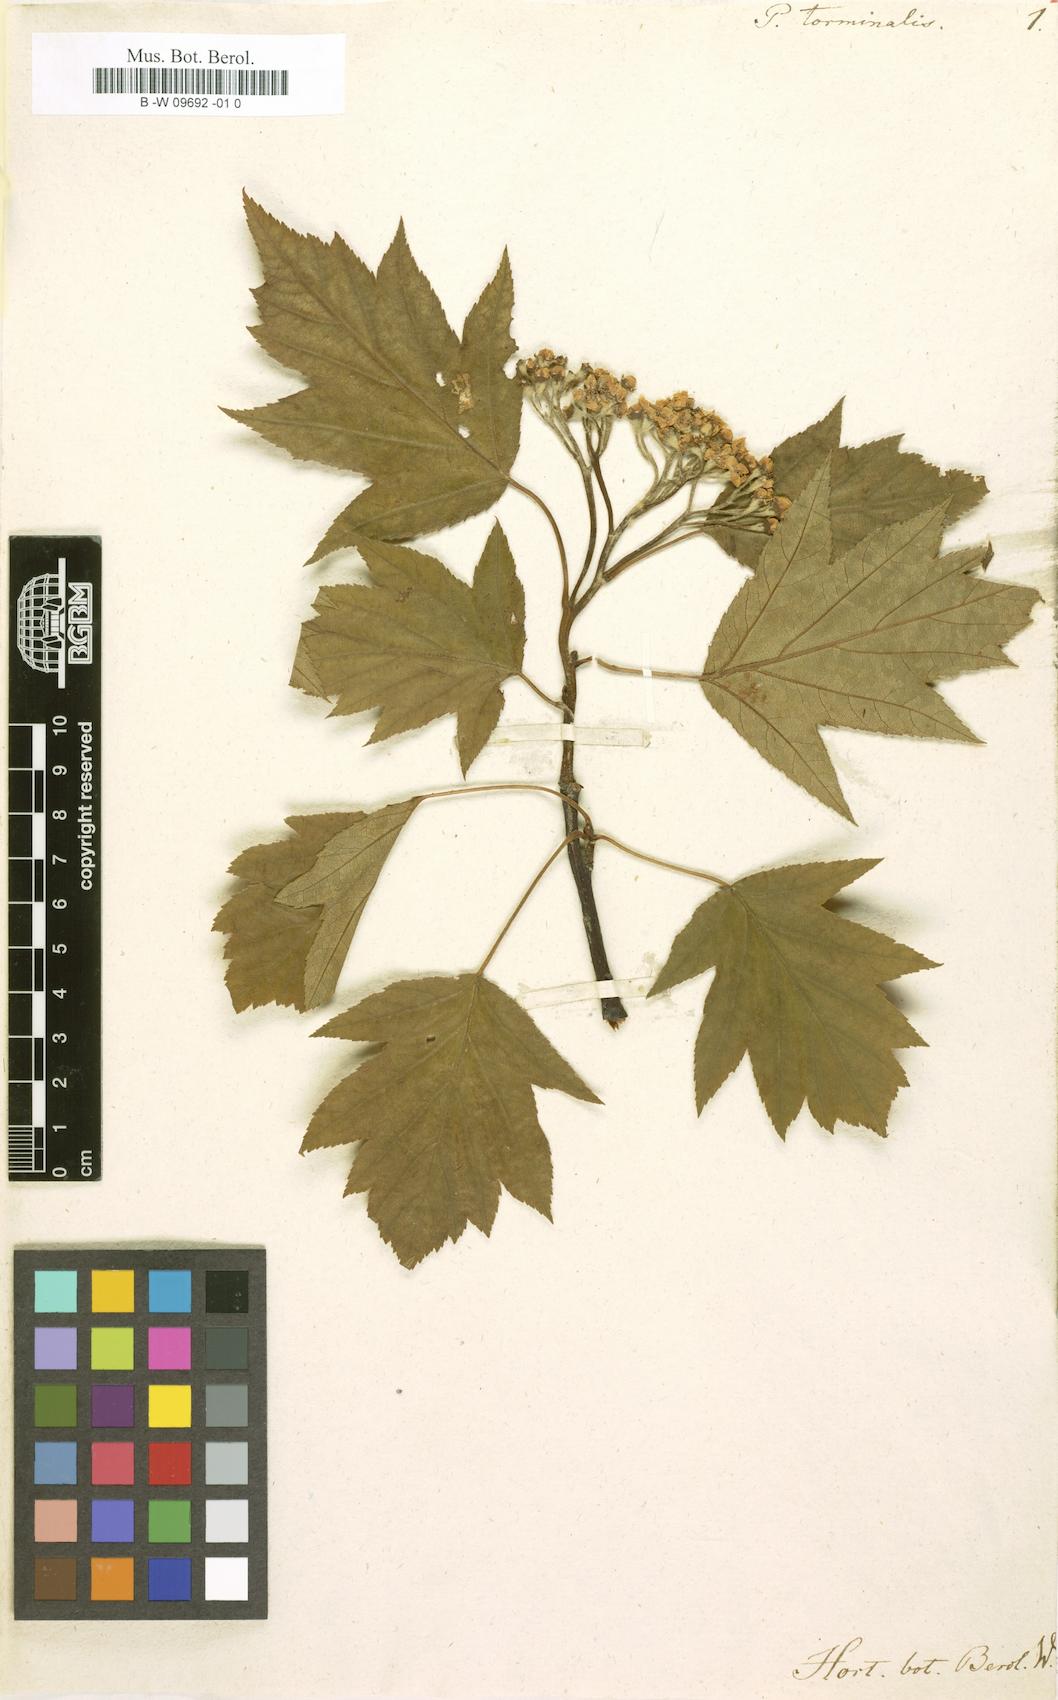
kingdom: Plantae
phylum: Tracheophyta
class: Magnoliopsida
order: Rosales
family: Rosaceae
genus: Torminalis
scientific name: Torminalis glaberrima
